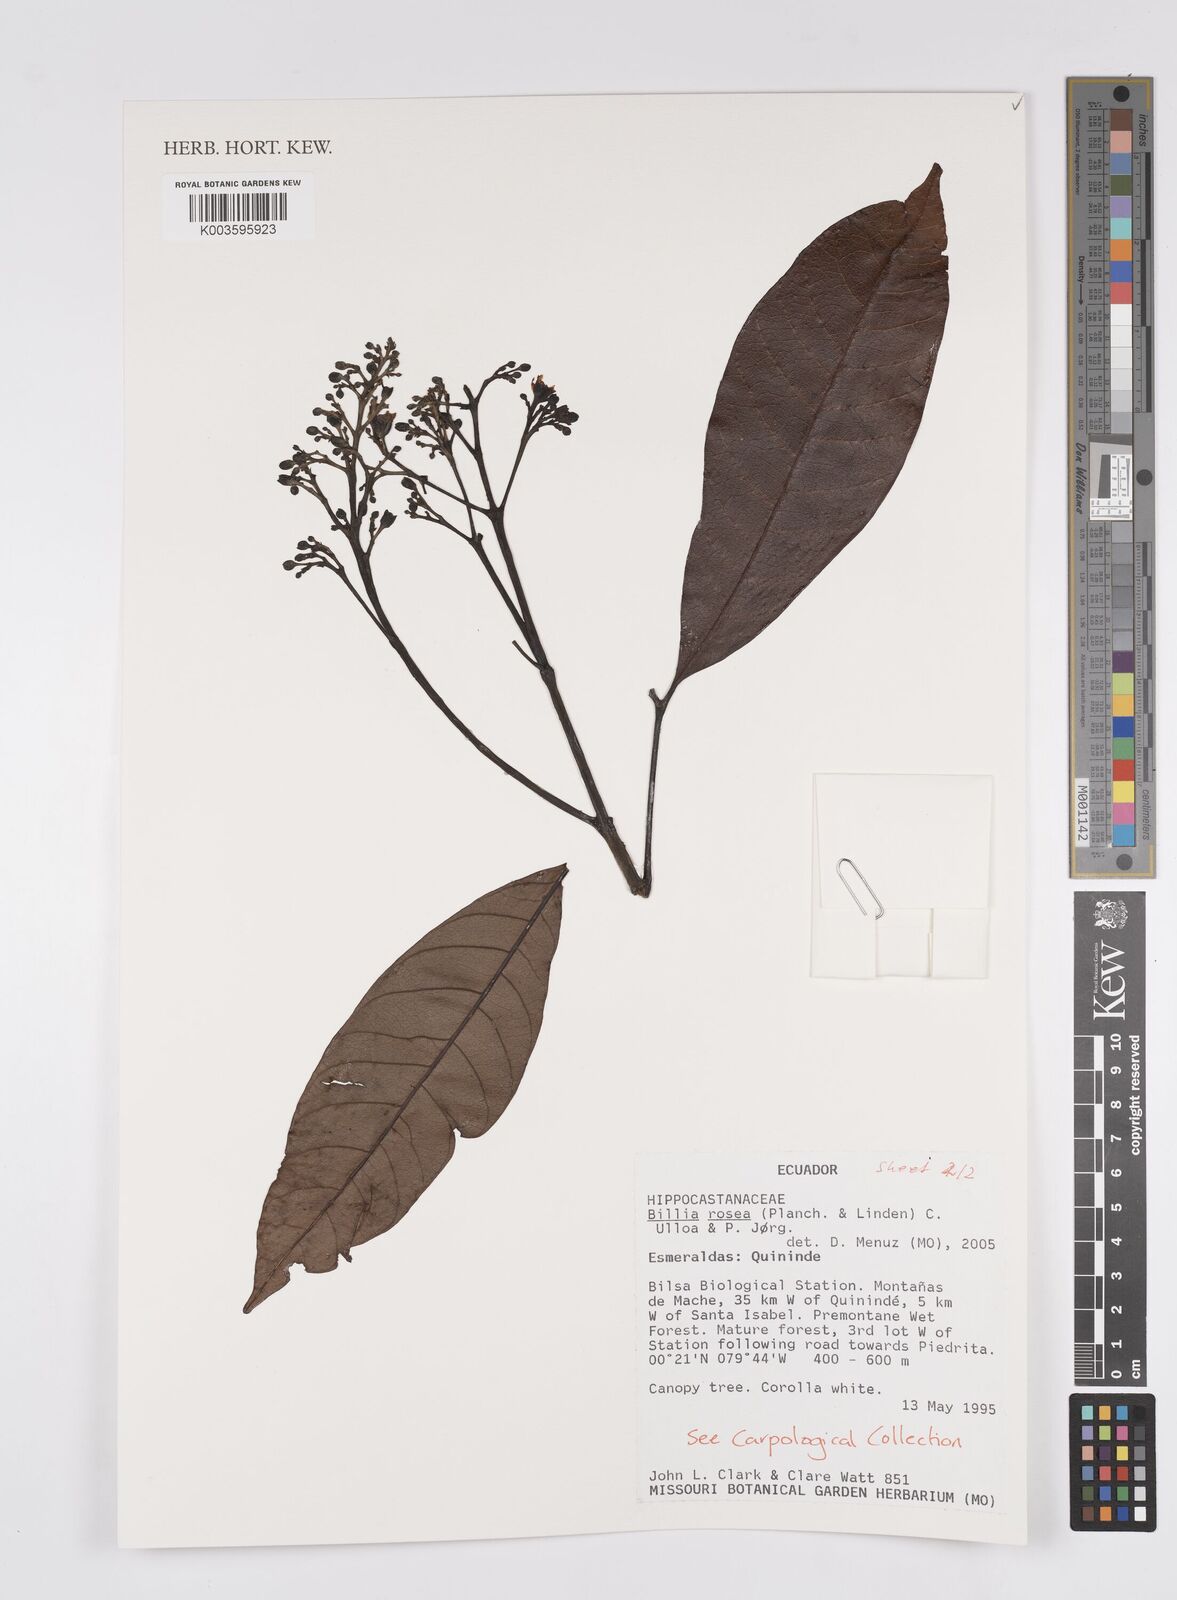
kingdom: Plantae
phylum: Tracheophyta
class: Magnoliopsida
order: Sapindales
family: Sapindaceae
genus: Billia
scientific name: Billia
